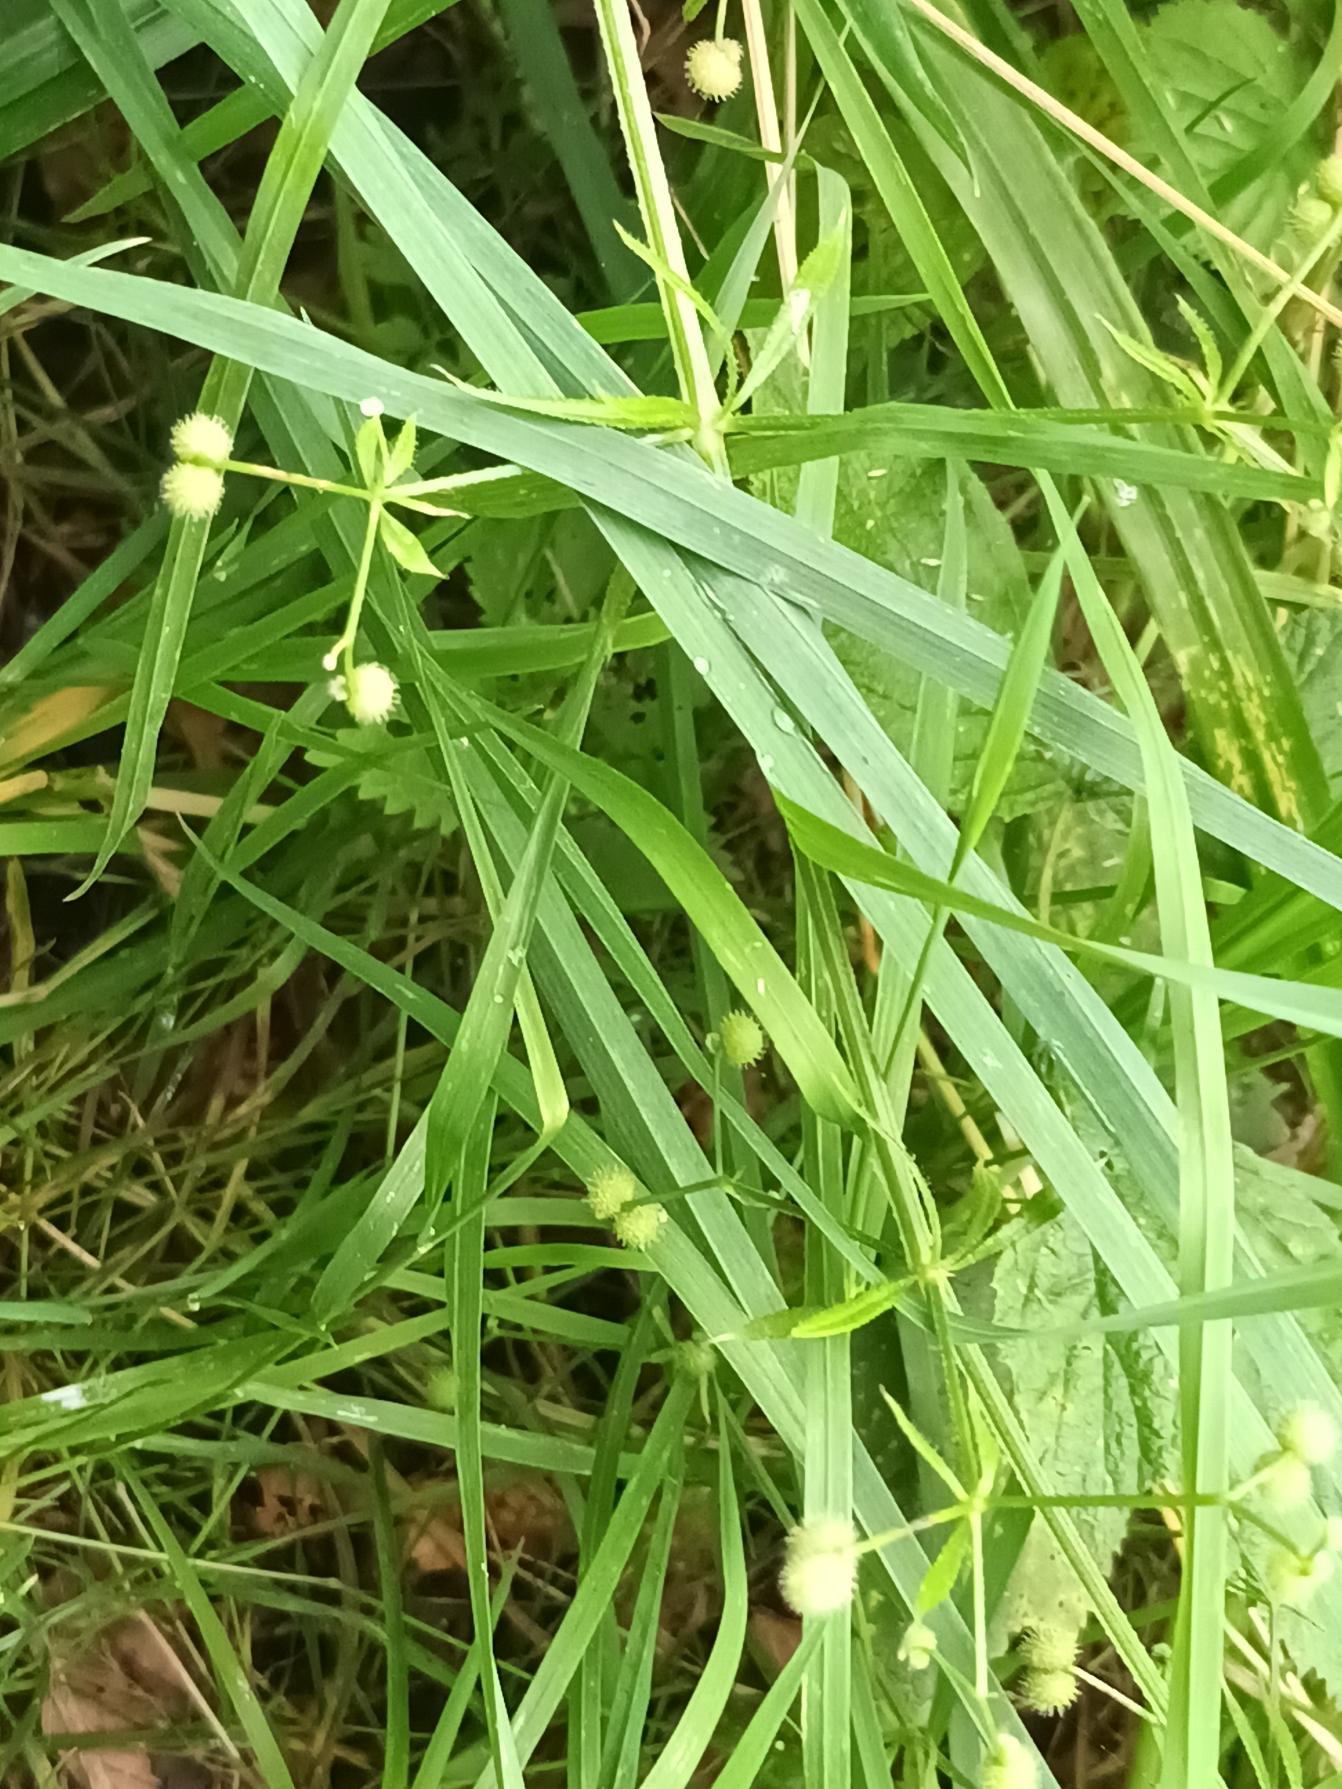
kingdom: Plantae
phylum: Tracheophyta
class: Magnoliopsida
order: Gentianales
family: Rubiaceae
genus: Galium
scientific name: Galium aparine
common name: Burre-snerre
